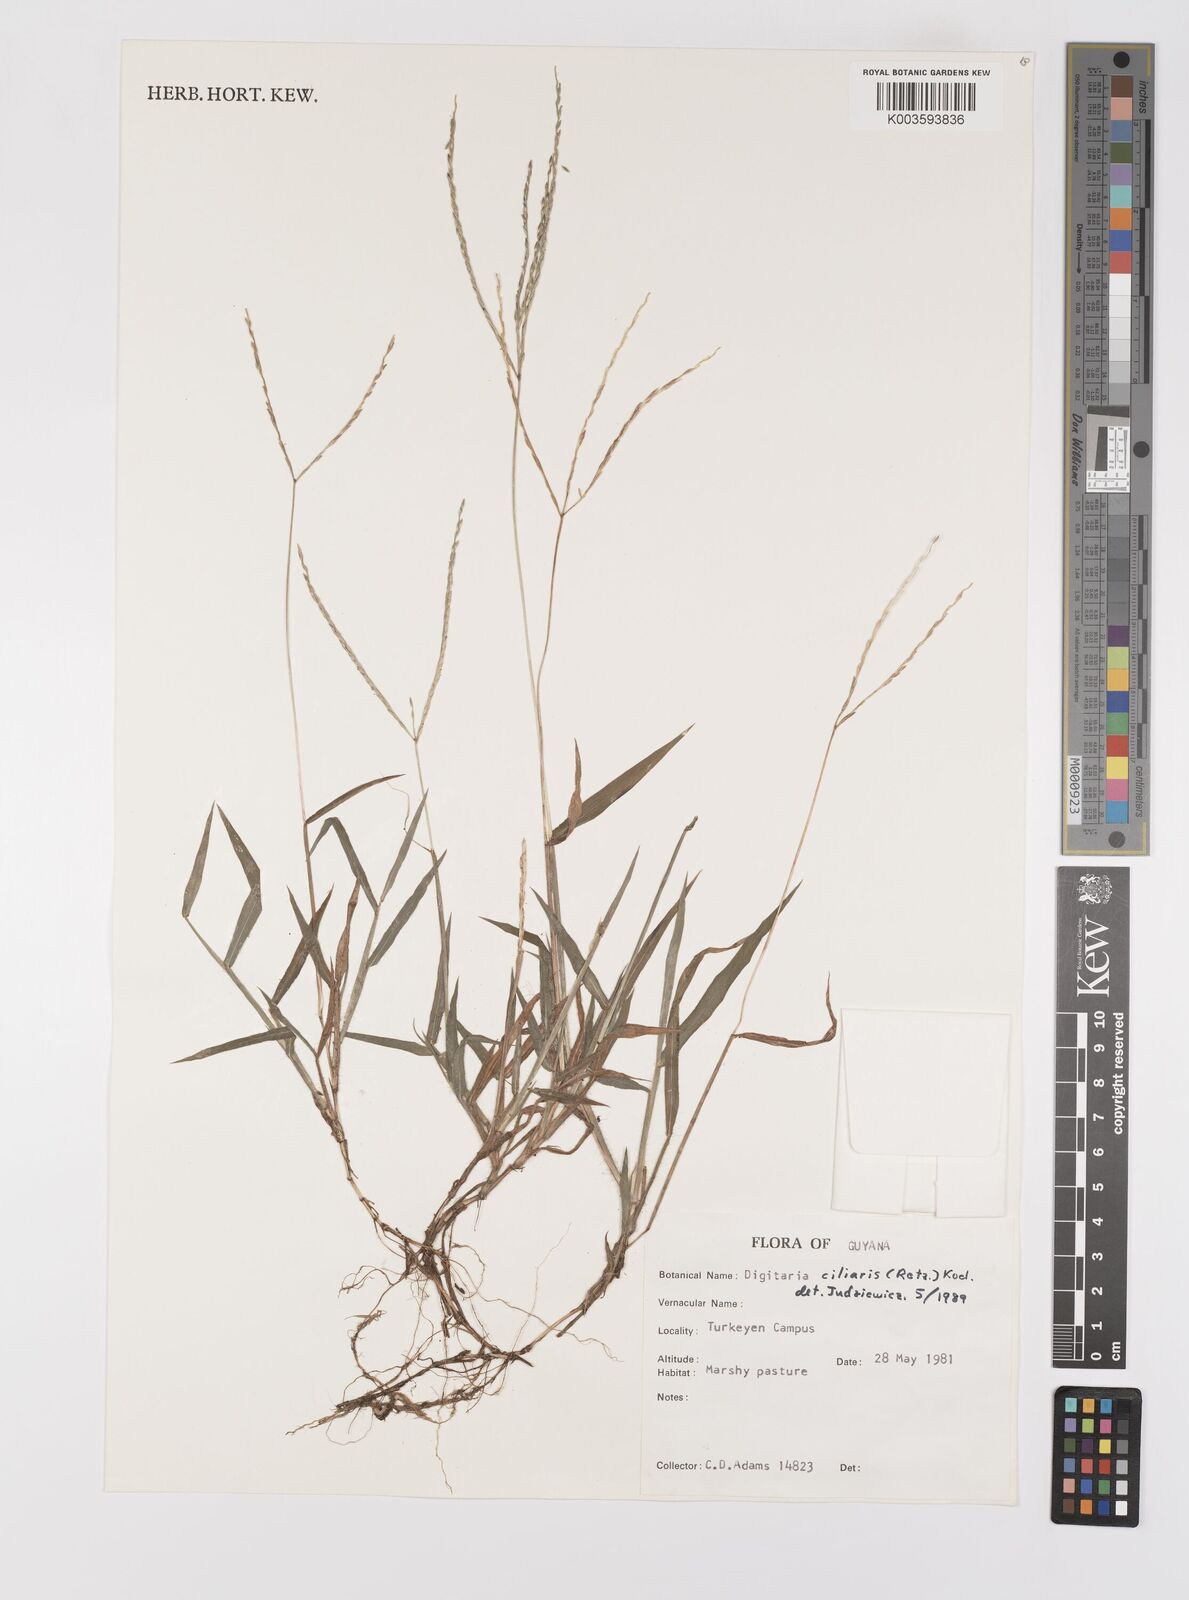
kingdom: Plantae
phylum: Tracheophyta
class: Liliopsida
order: Poales
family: Poaceae
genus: Digitaria
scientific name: Digitaria ciliaris
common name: Tropical finger-grass
